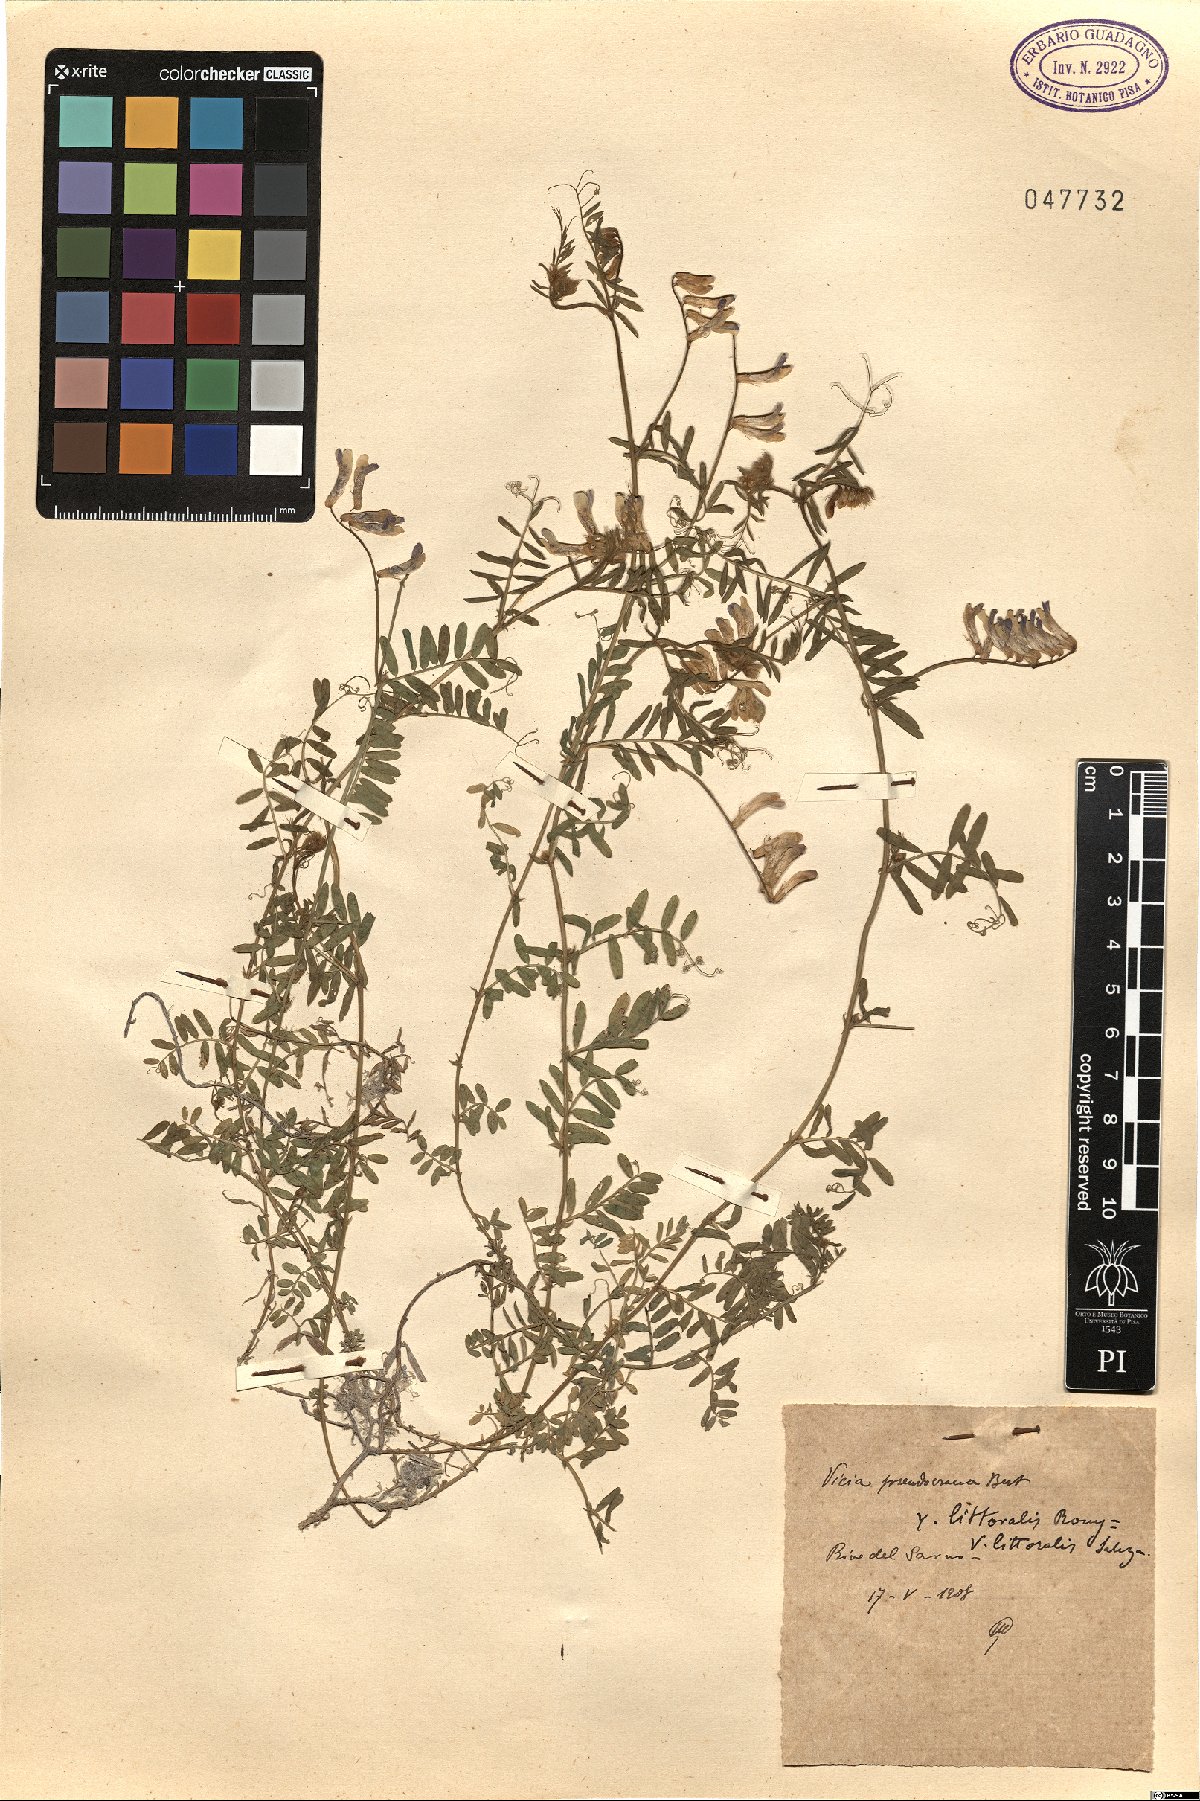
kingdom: Plantae
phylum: Tracheophyta
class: Magnoliopsida
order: Fabales
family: Fabaceae
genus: Vicia
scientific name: Vicia villosa
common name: Fodder vetch
